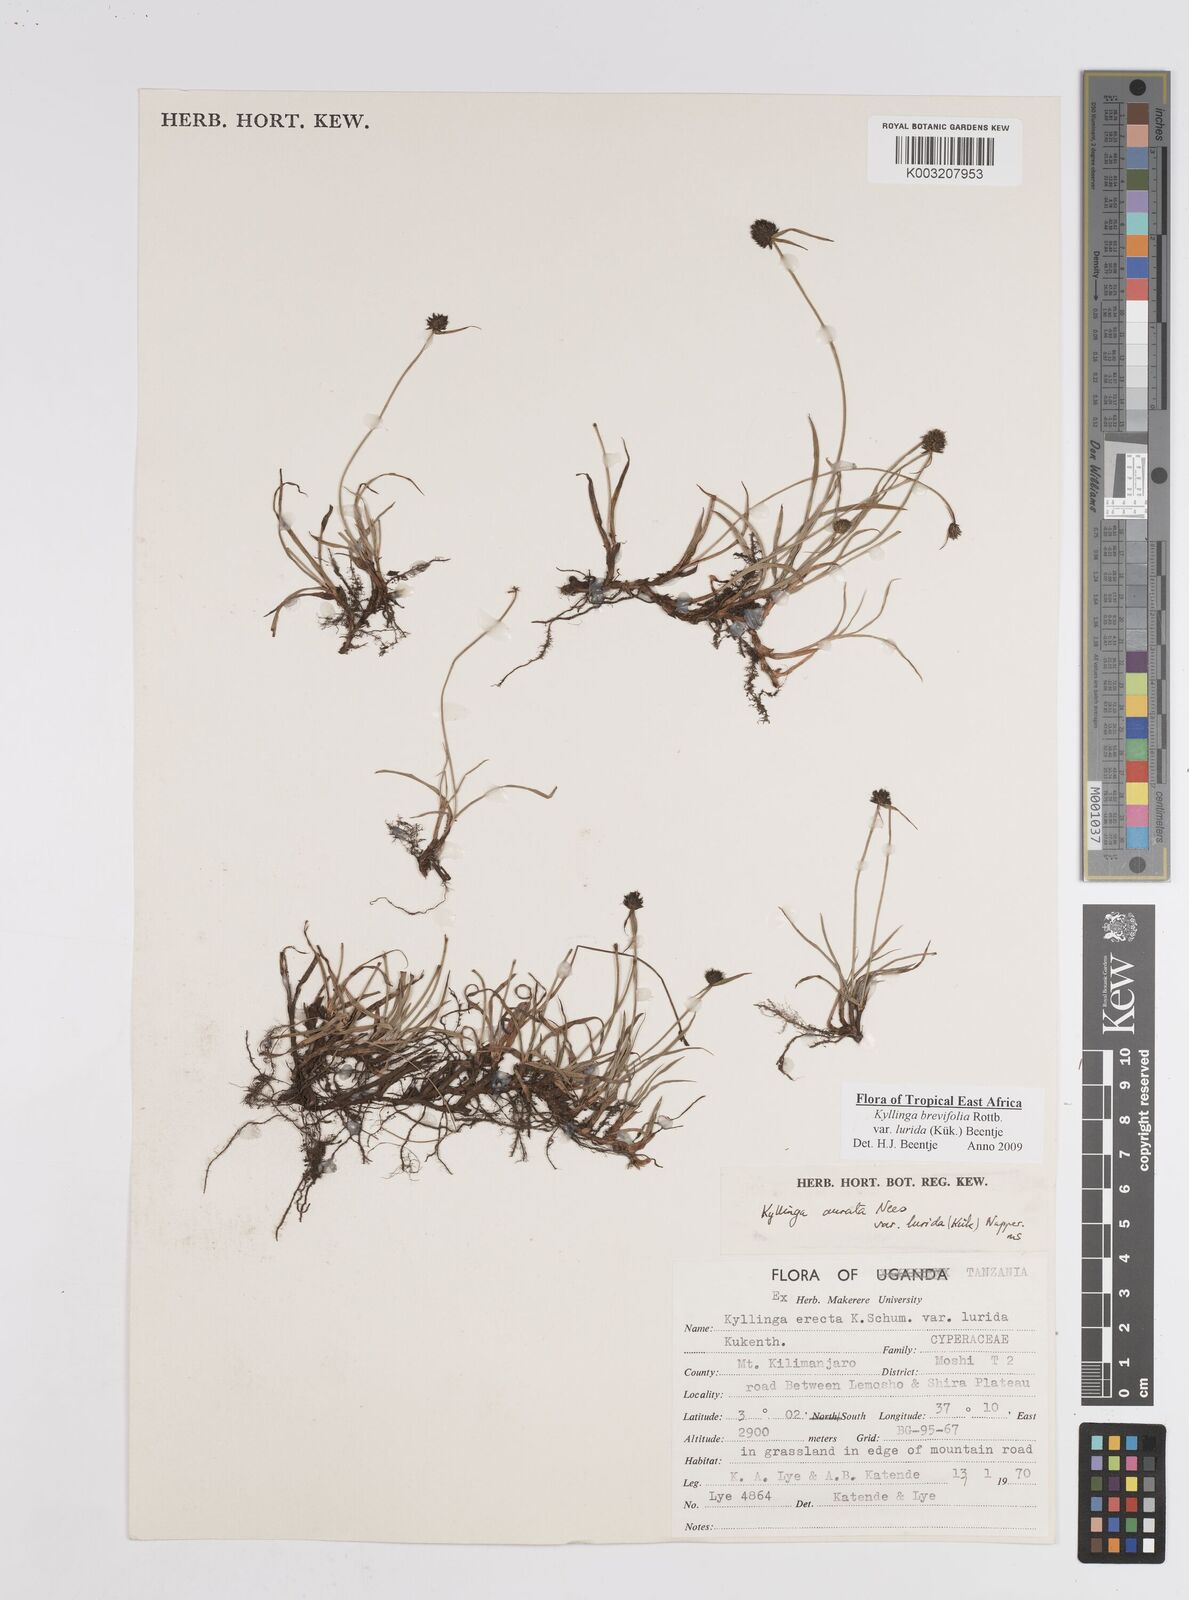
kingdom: Plantae
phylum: Tracheophyta
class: Liliopsida
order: Poales
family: Cyperaceae
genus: Cyperus
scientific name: Cyperus erectus
